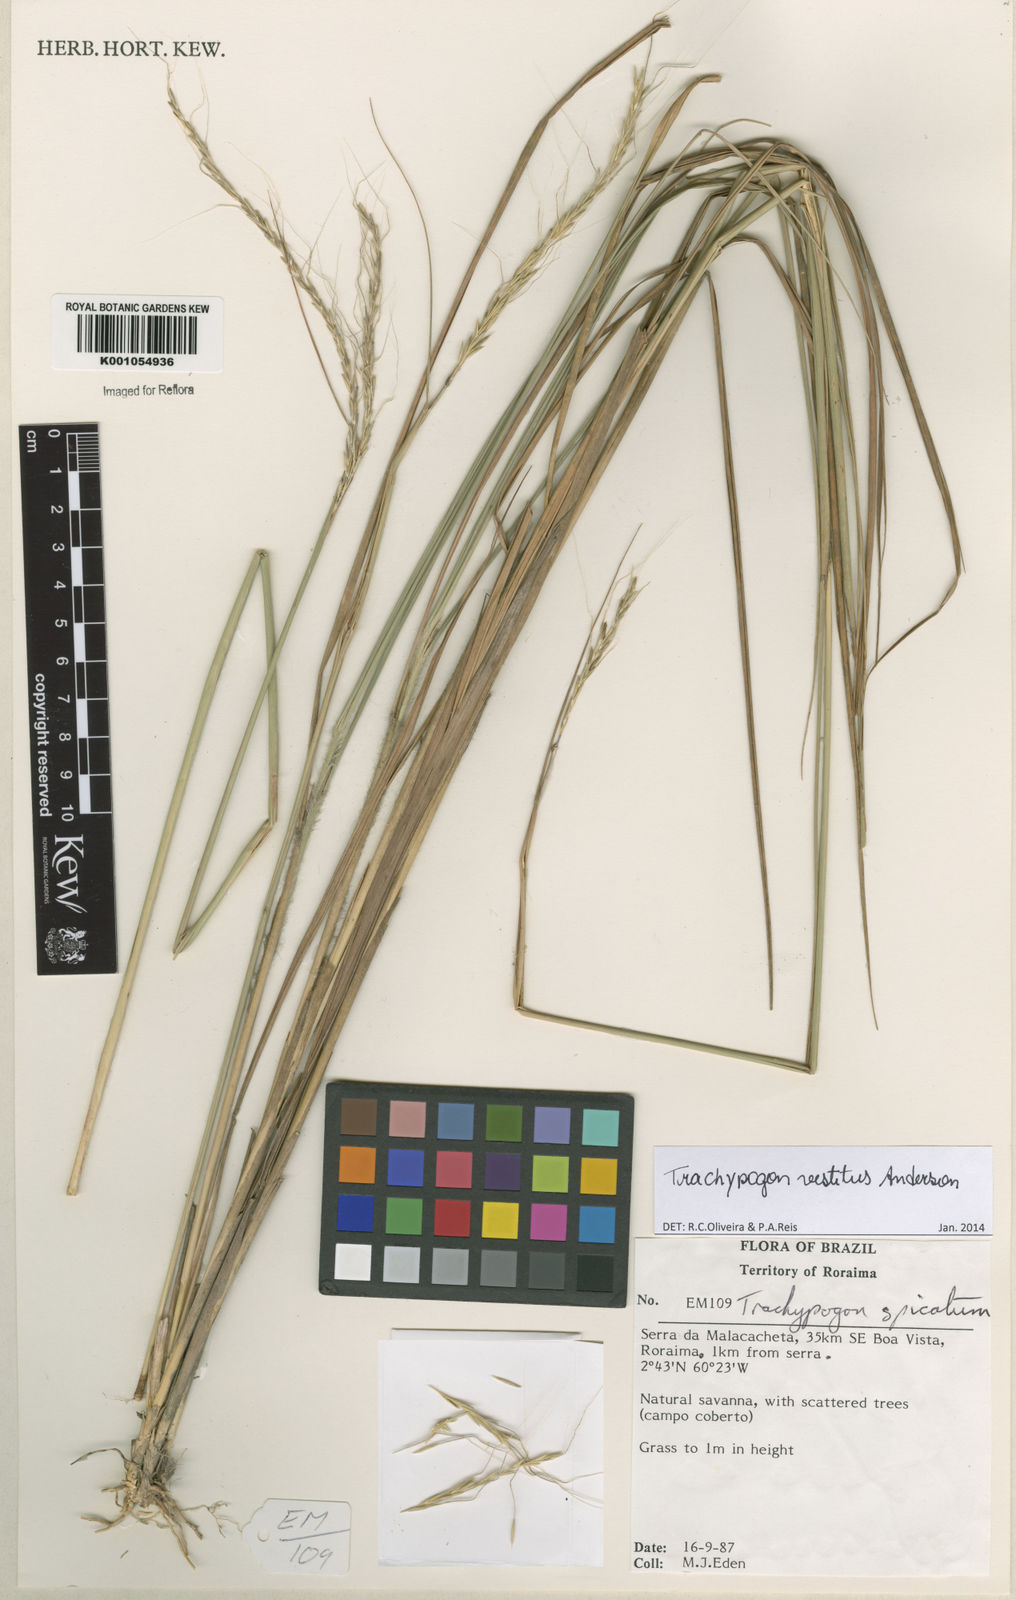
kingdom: Plantae
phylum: Tracheophyta
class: Liliopsida
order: Poales
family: Poaceae
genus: Trachypogon
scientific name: Trachypogon vestitus
